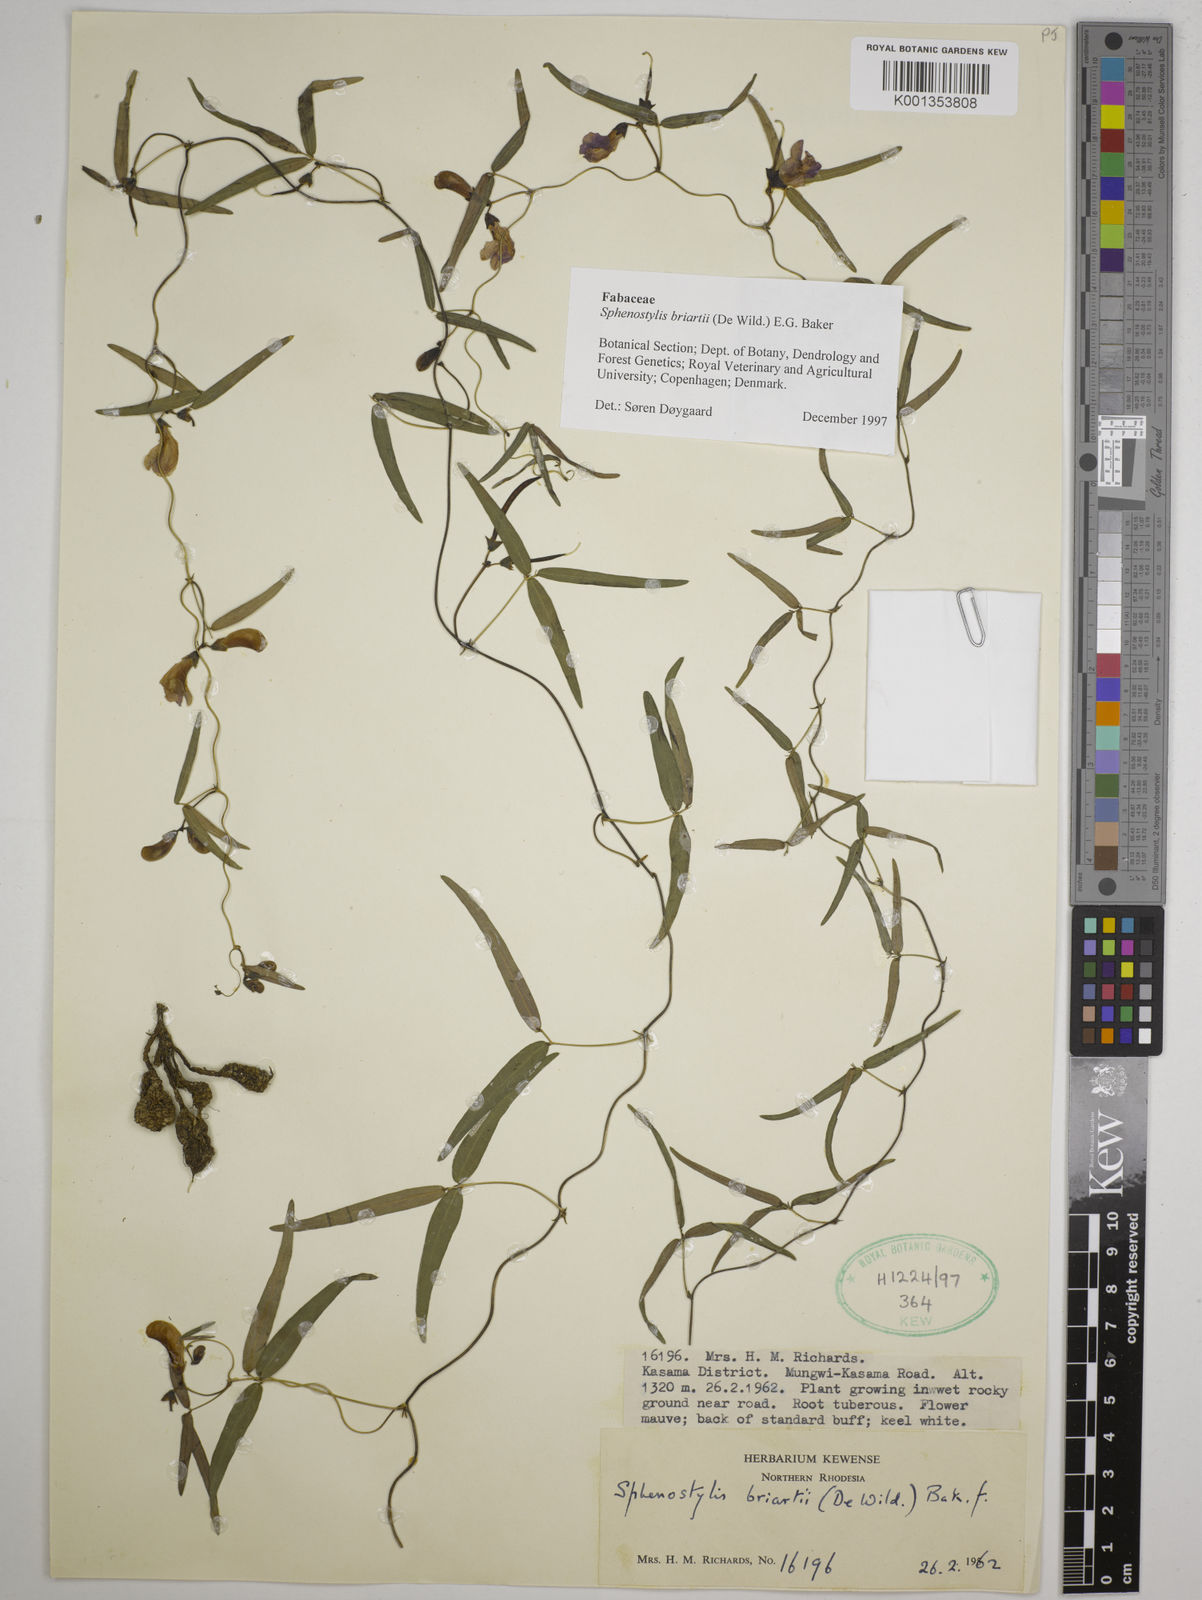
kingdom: Plantae
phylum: Tracheophyta
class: Magnoliopsida
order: Fabales
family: Fabaceae
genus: Sphenostylis
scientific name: Sphenostylis briartii
